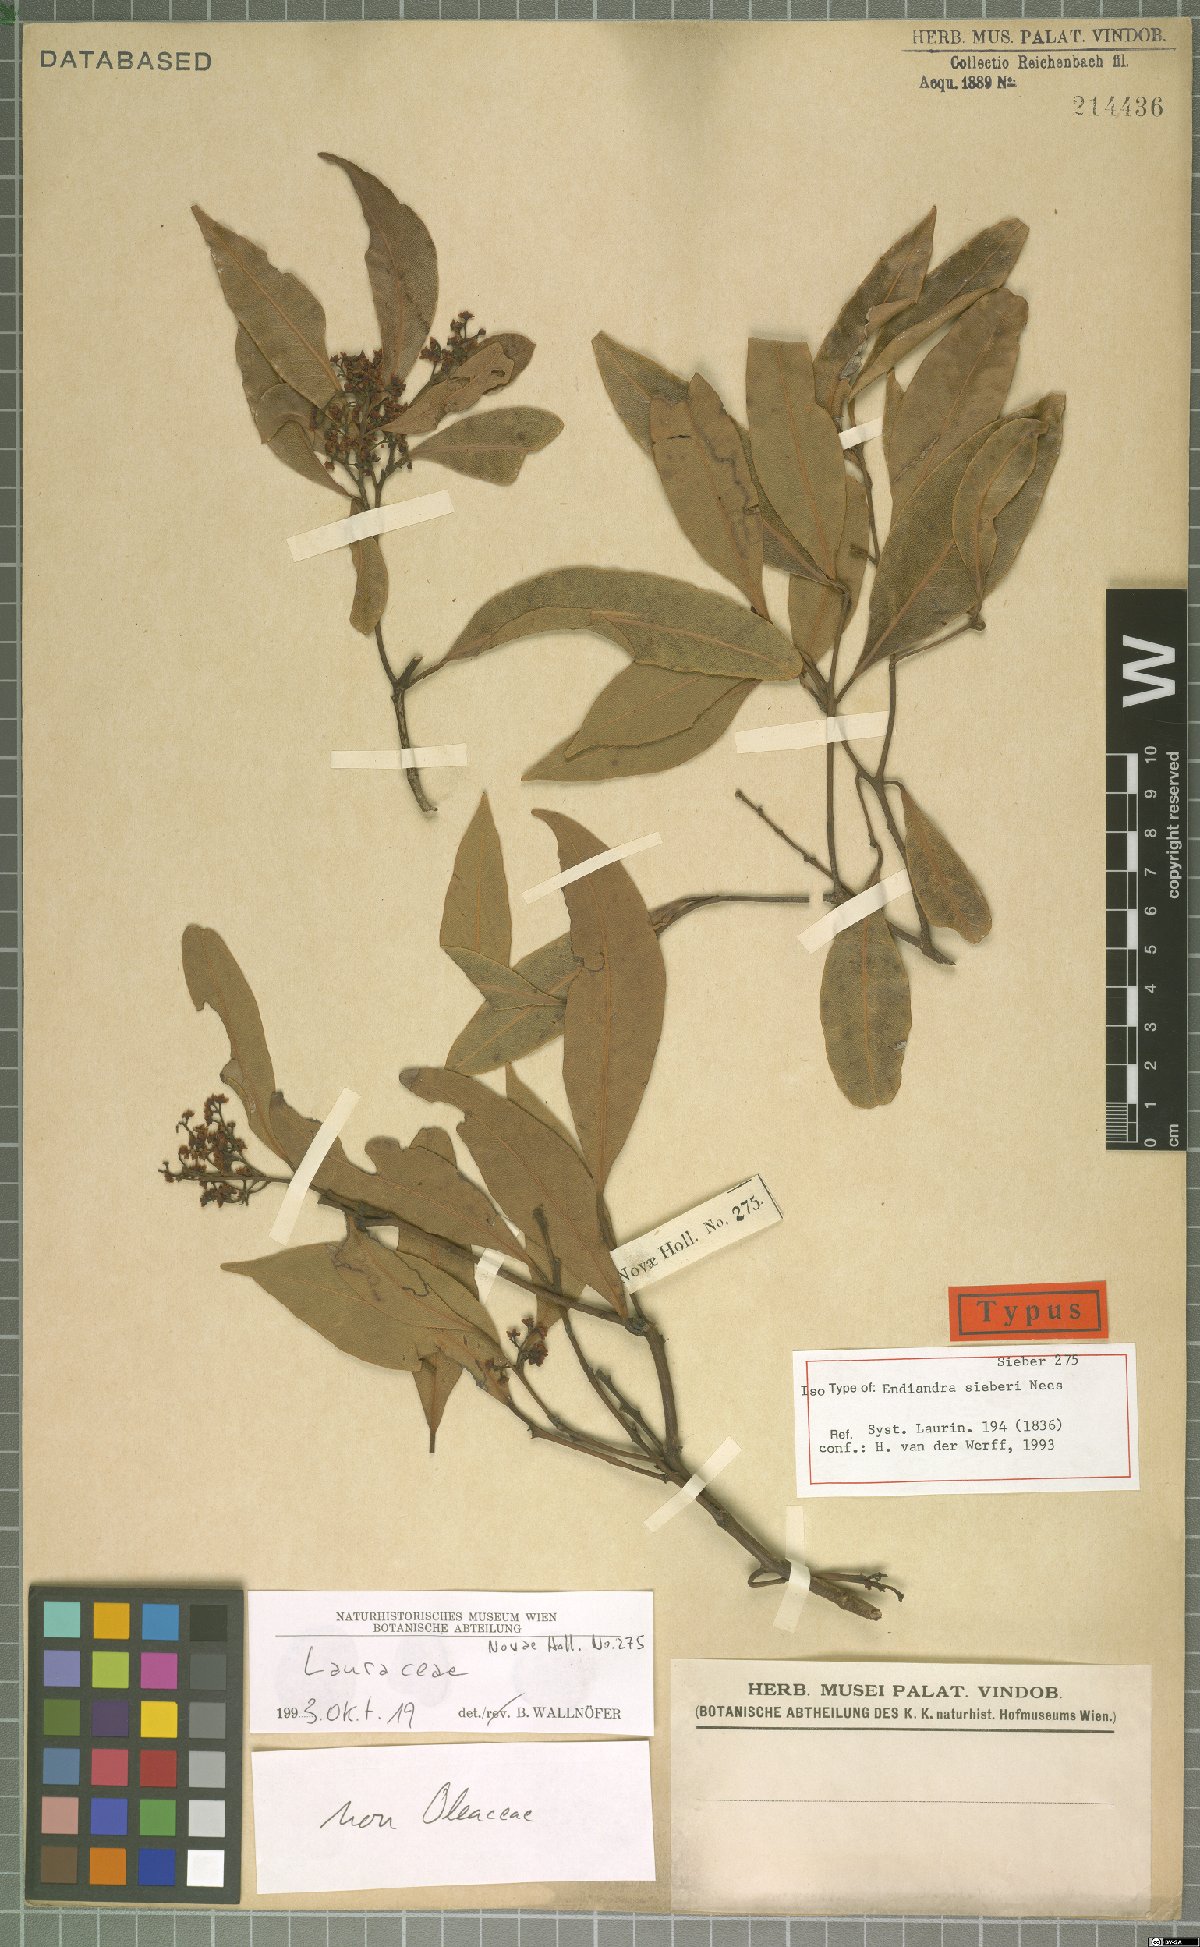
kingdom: Plantae
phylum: Tracheophyta
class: Magnoliopsida
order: Laurales
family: Lauraceae
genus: Endiandra
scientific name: Endiandra sieberi
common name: Corkwood
